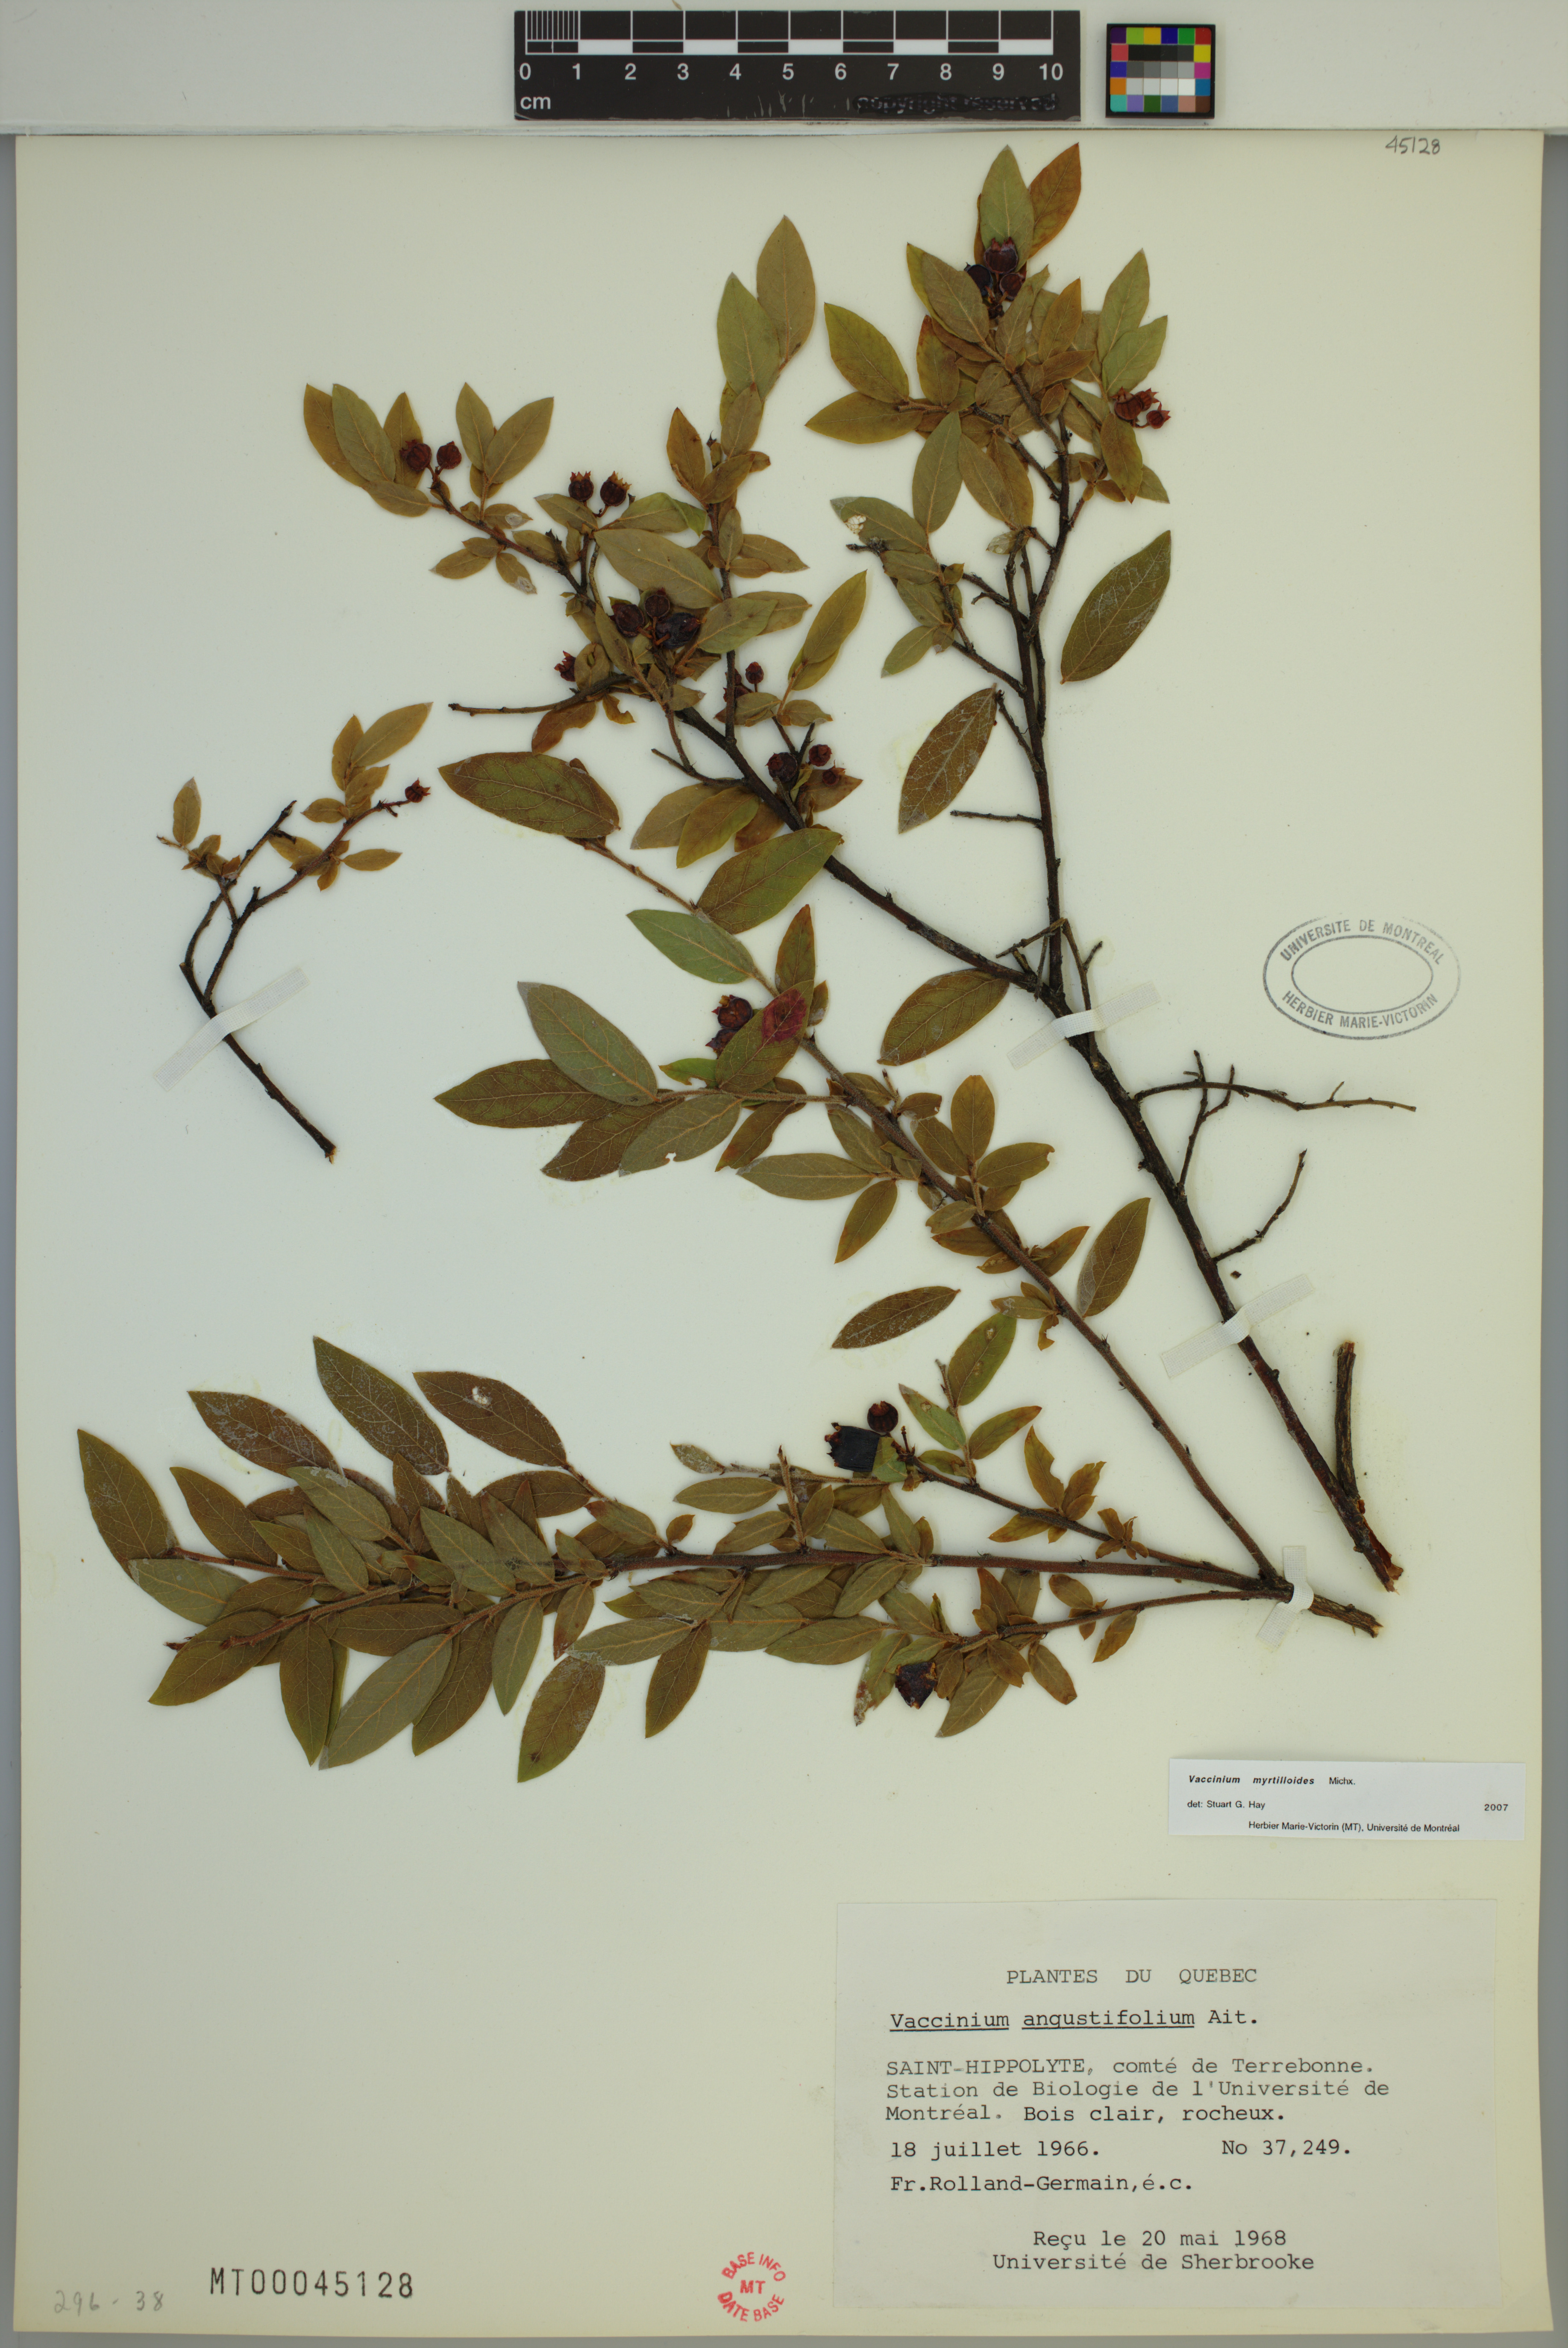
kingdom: Plantae
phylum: Tracheophyta
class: Magnoliopsida
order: Ericales
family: Ericaceae
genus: Vaccinium
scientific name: Vaccinium myrtilloides
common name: Canada blueberry
